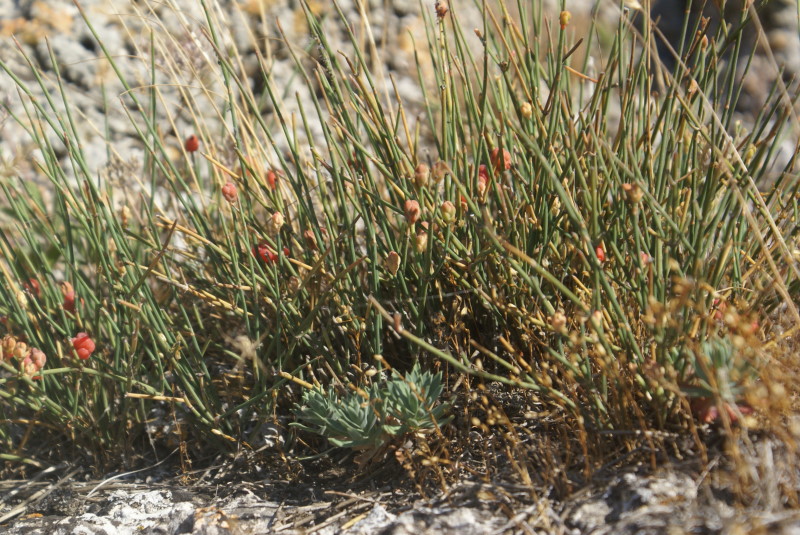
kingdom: Plantae
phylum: Tracheophyta
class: Gnetopsida
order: Ephedrales
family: Ephedraceae
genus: Ephedra
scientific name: Ephedra distachya
